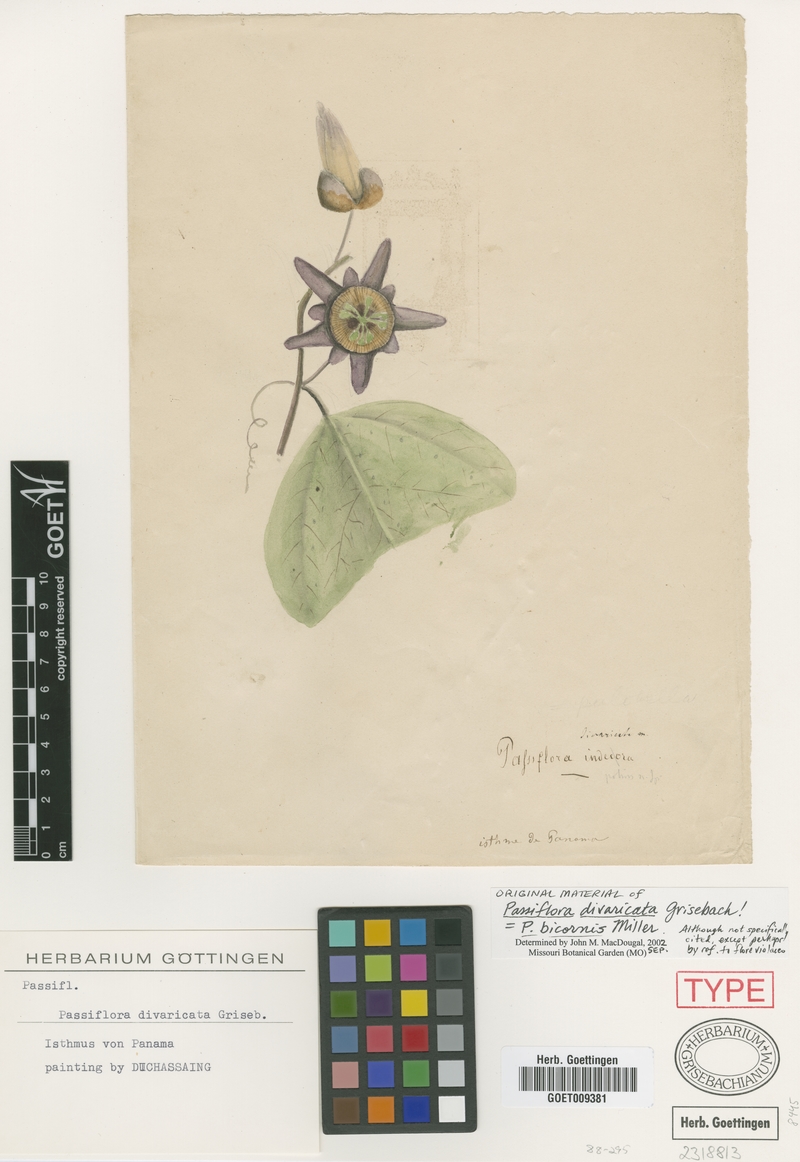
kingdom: Plantae
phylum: Tracheophyta
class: Magnoliopsida
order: Malpighiales
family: Passifloraceae
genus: Passiflora
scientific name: Passiflora bicornis
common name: Wingleaf passionflower
